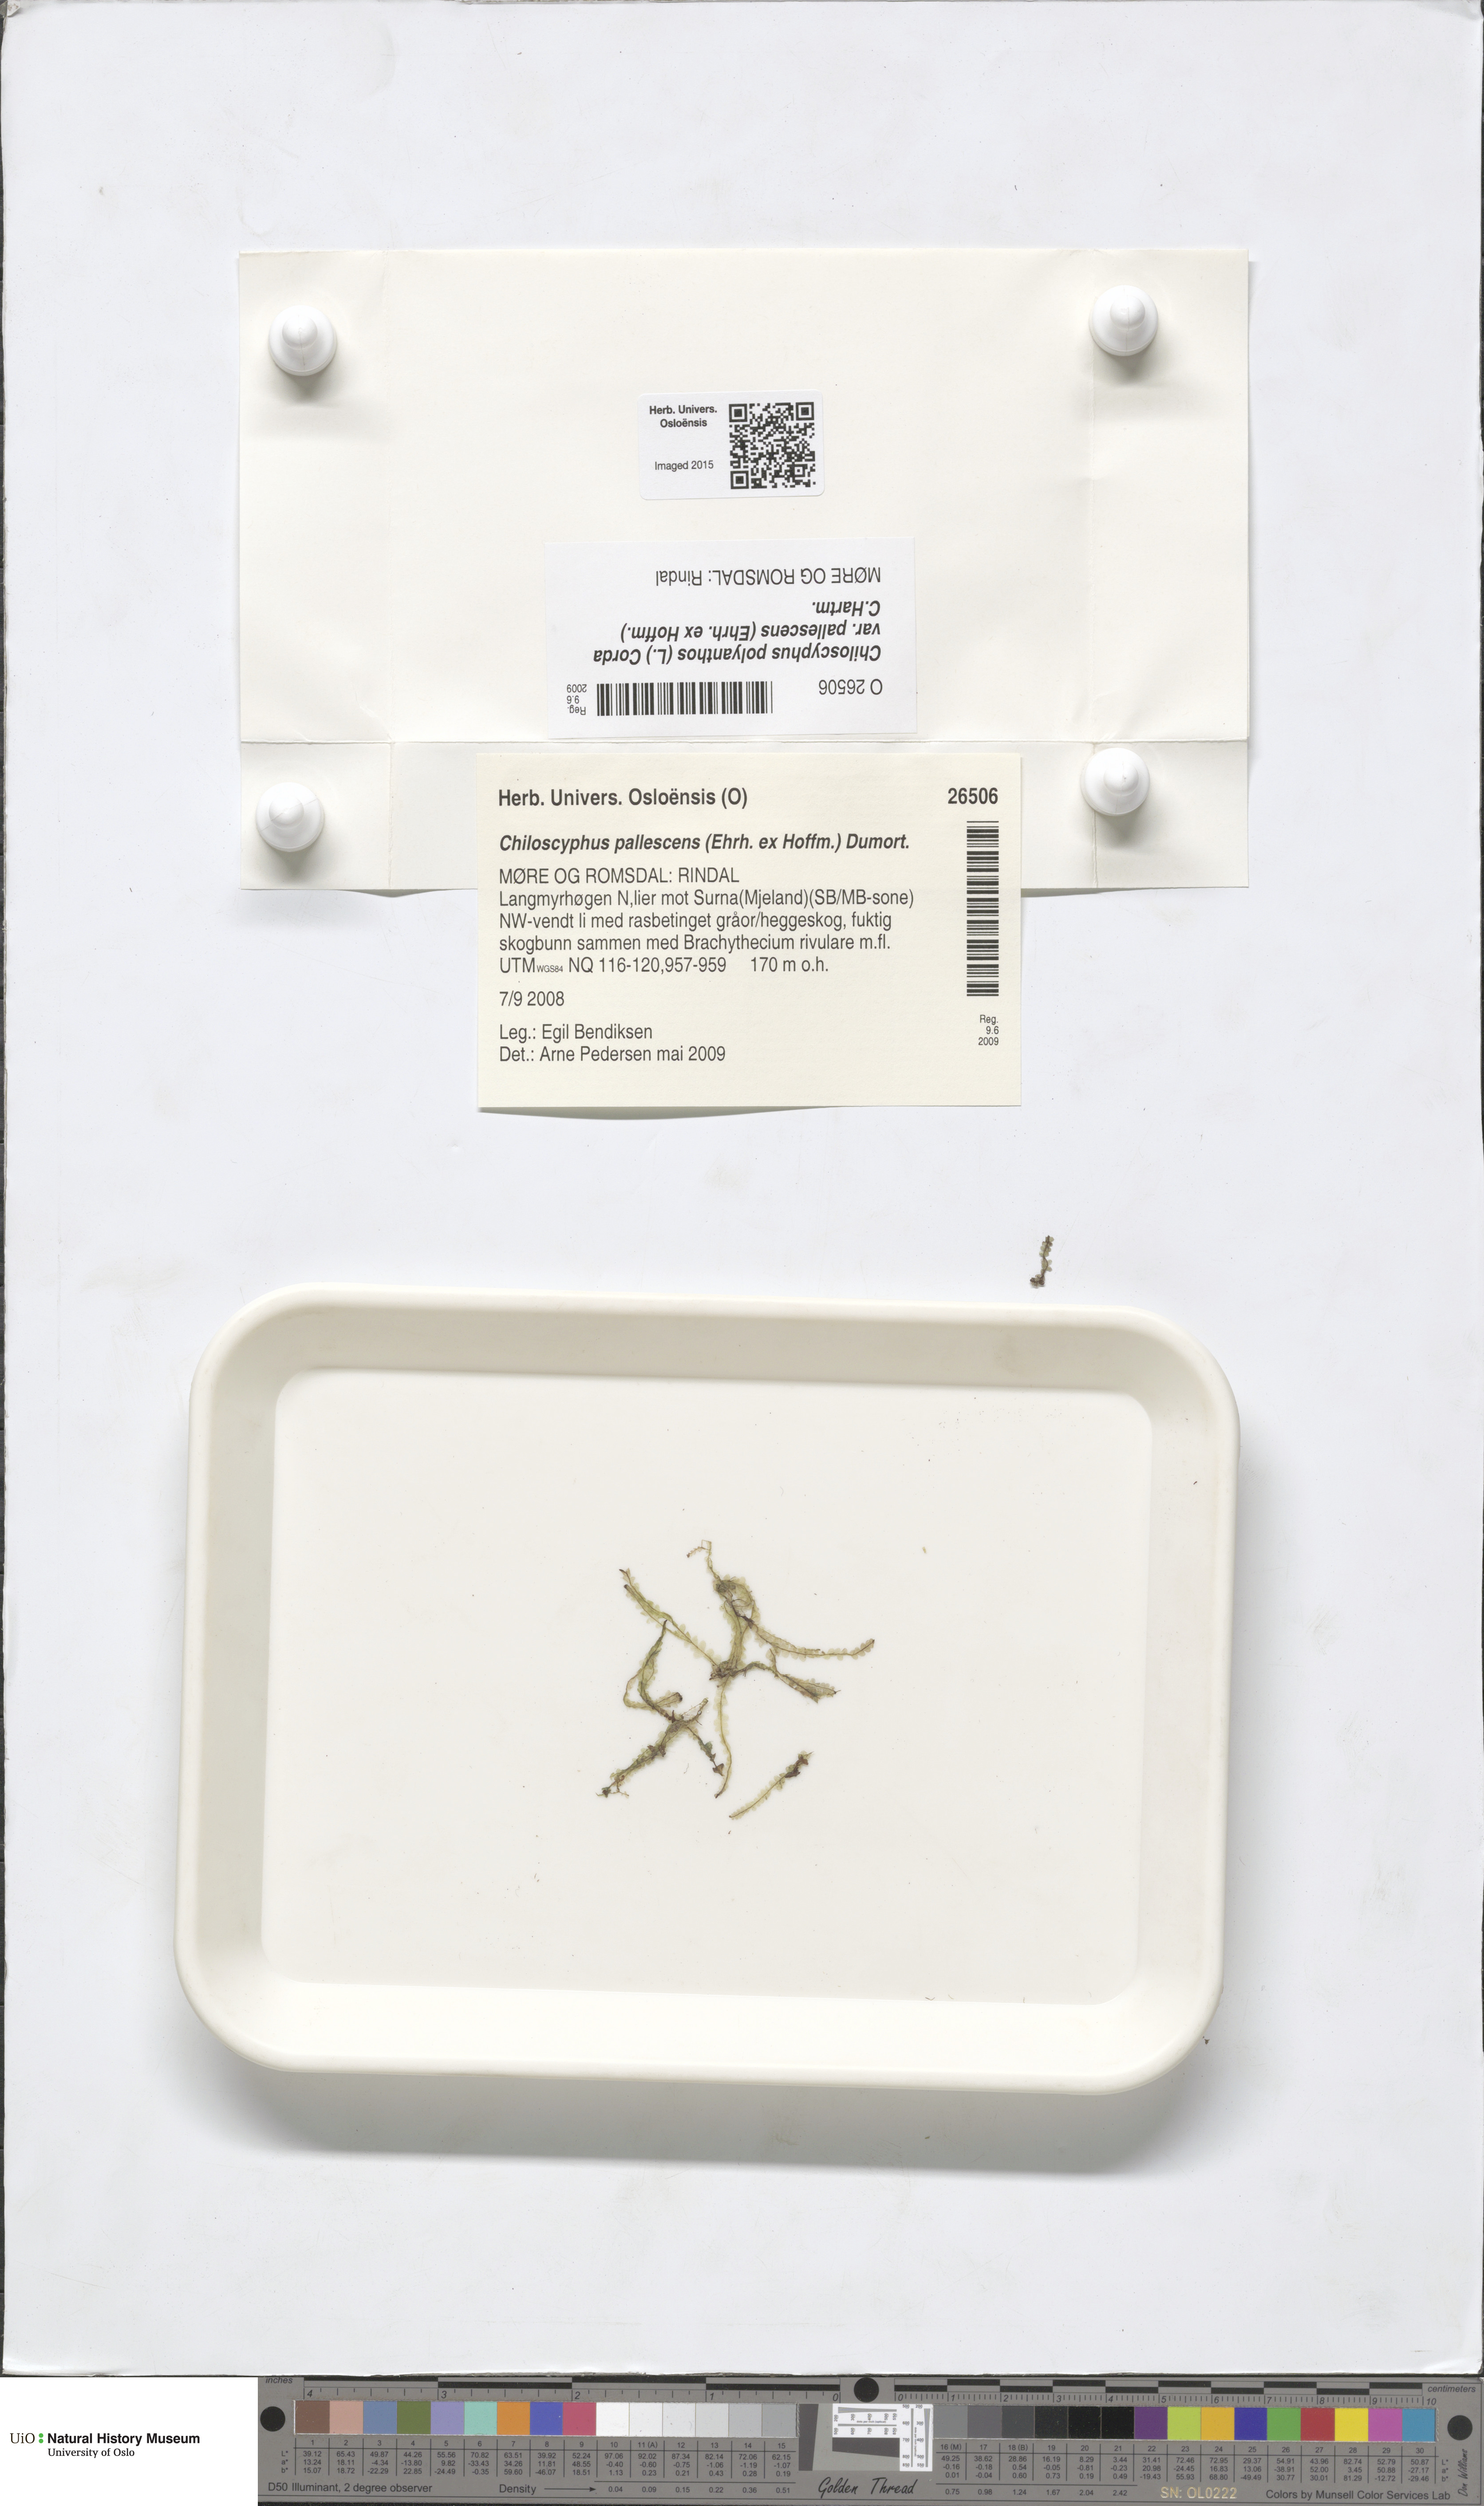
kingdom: Plantae
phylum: Marchantiophyta
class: Jungermanniopsida
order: Jungermanniales
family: Lophocoleaceae
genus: Chiloscyphus
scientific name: Chiloscyphus pallescens
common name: St winifrid's other moss
